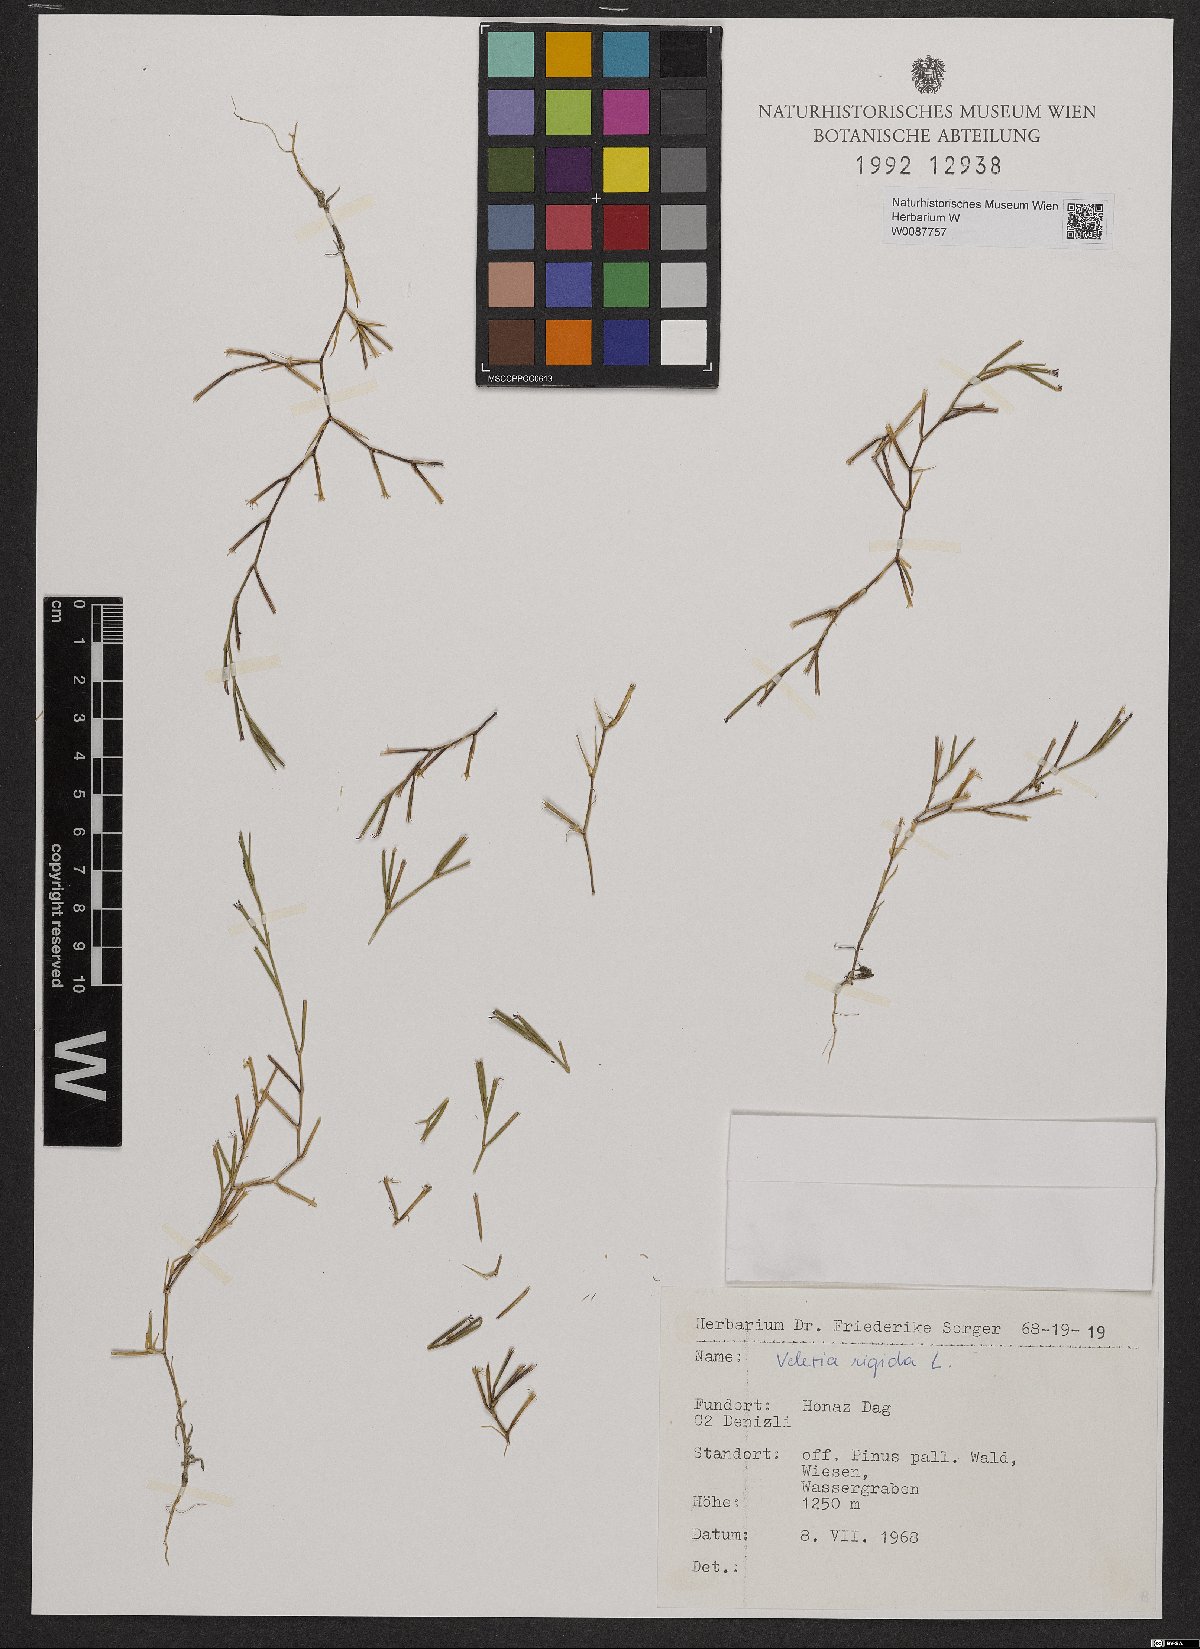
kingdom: Plantae
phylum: Tracheophyta
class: Magnoliopsida
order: Caryophyllales
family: Caryophyllaceae
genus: Dianthus
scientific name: Dianthus nudiflorus
